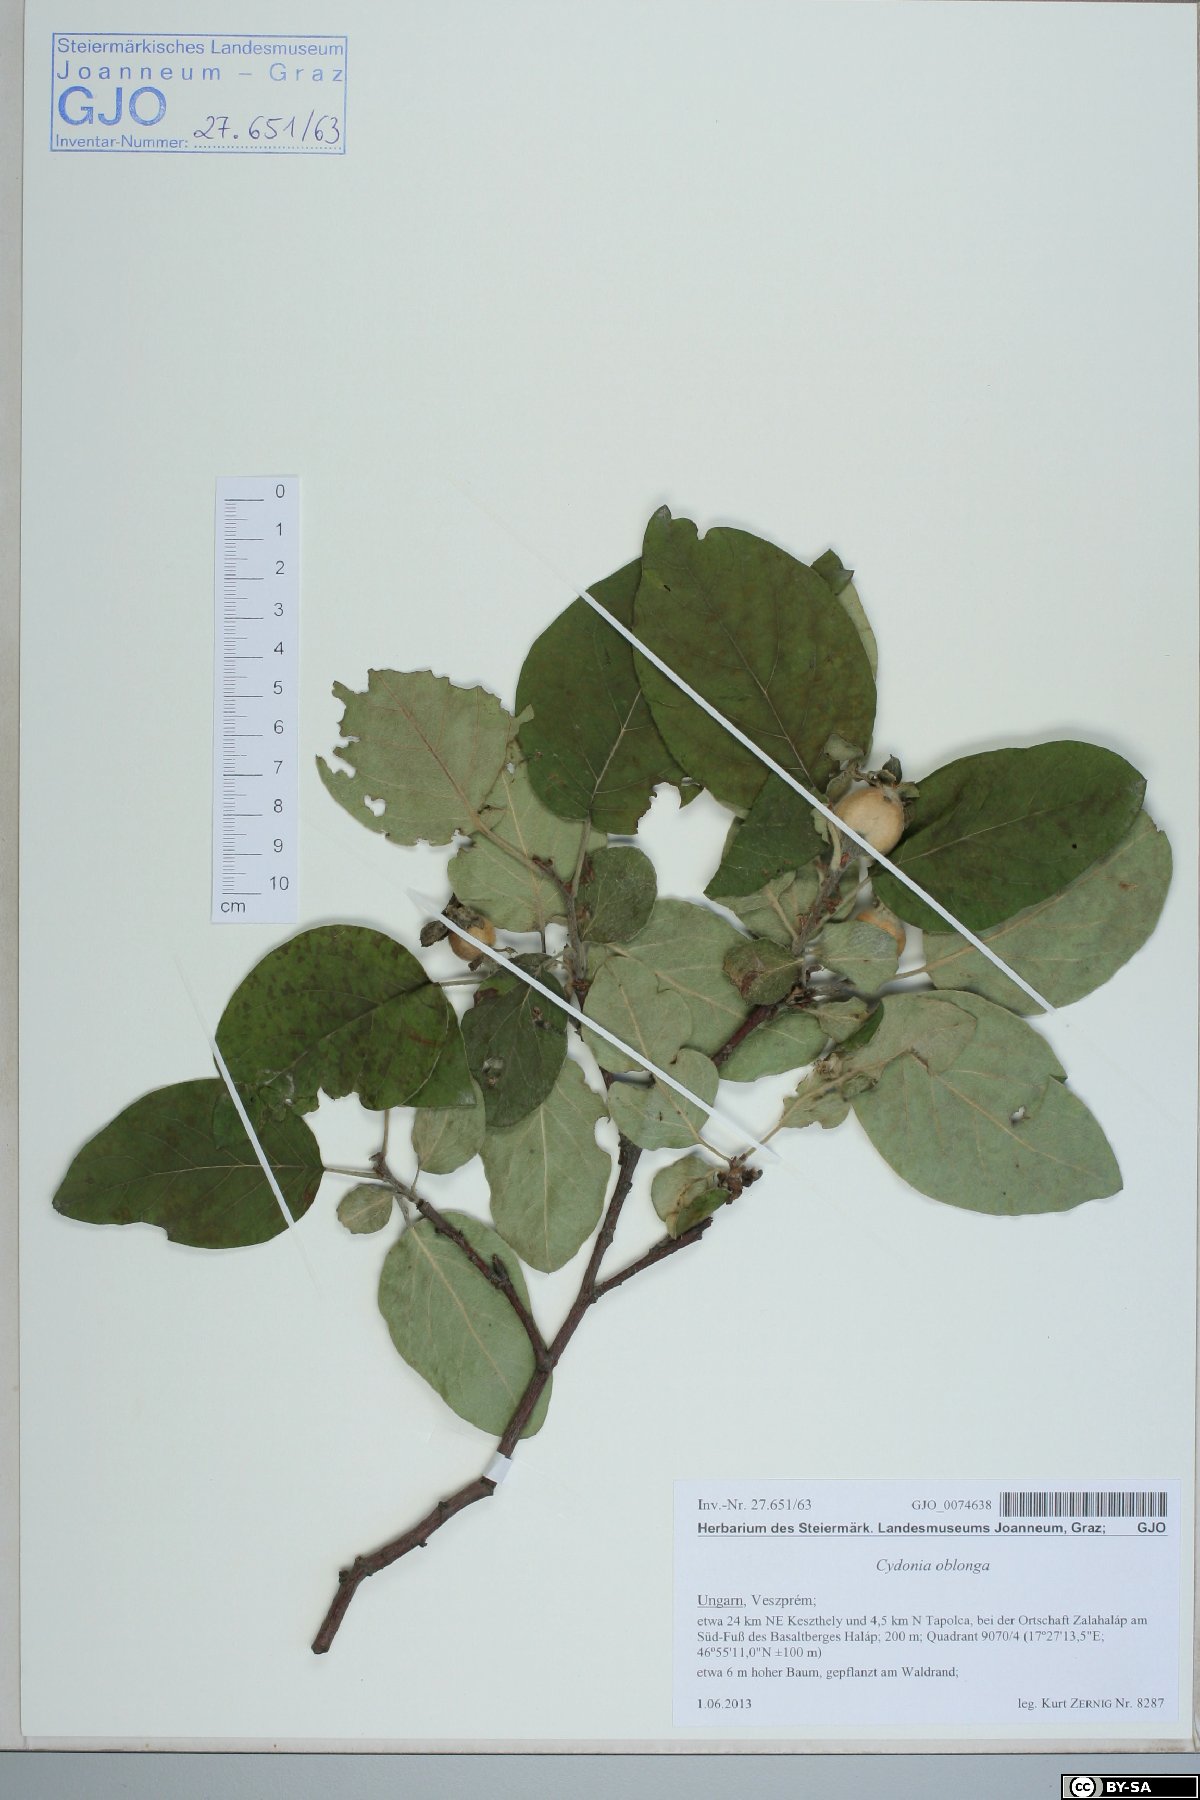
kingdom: Plantae
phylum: Tracheophyta
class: Magnoliopsida
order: Rosales
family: Rosaceae
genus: Cydonia
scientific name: Cydonia oblonga
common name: Quince
